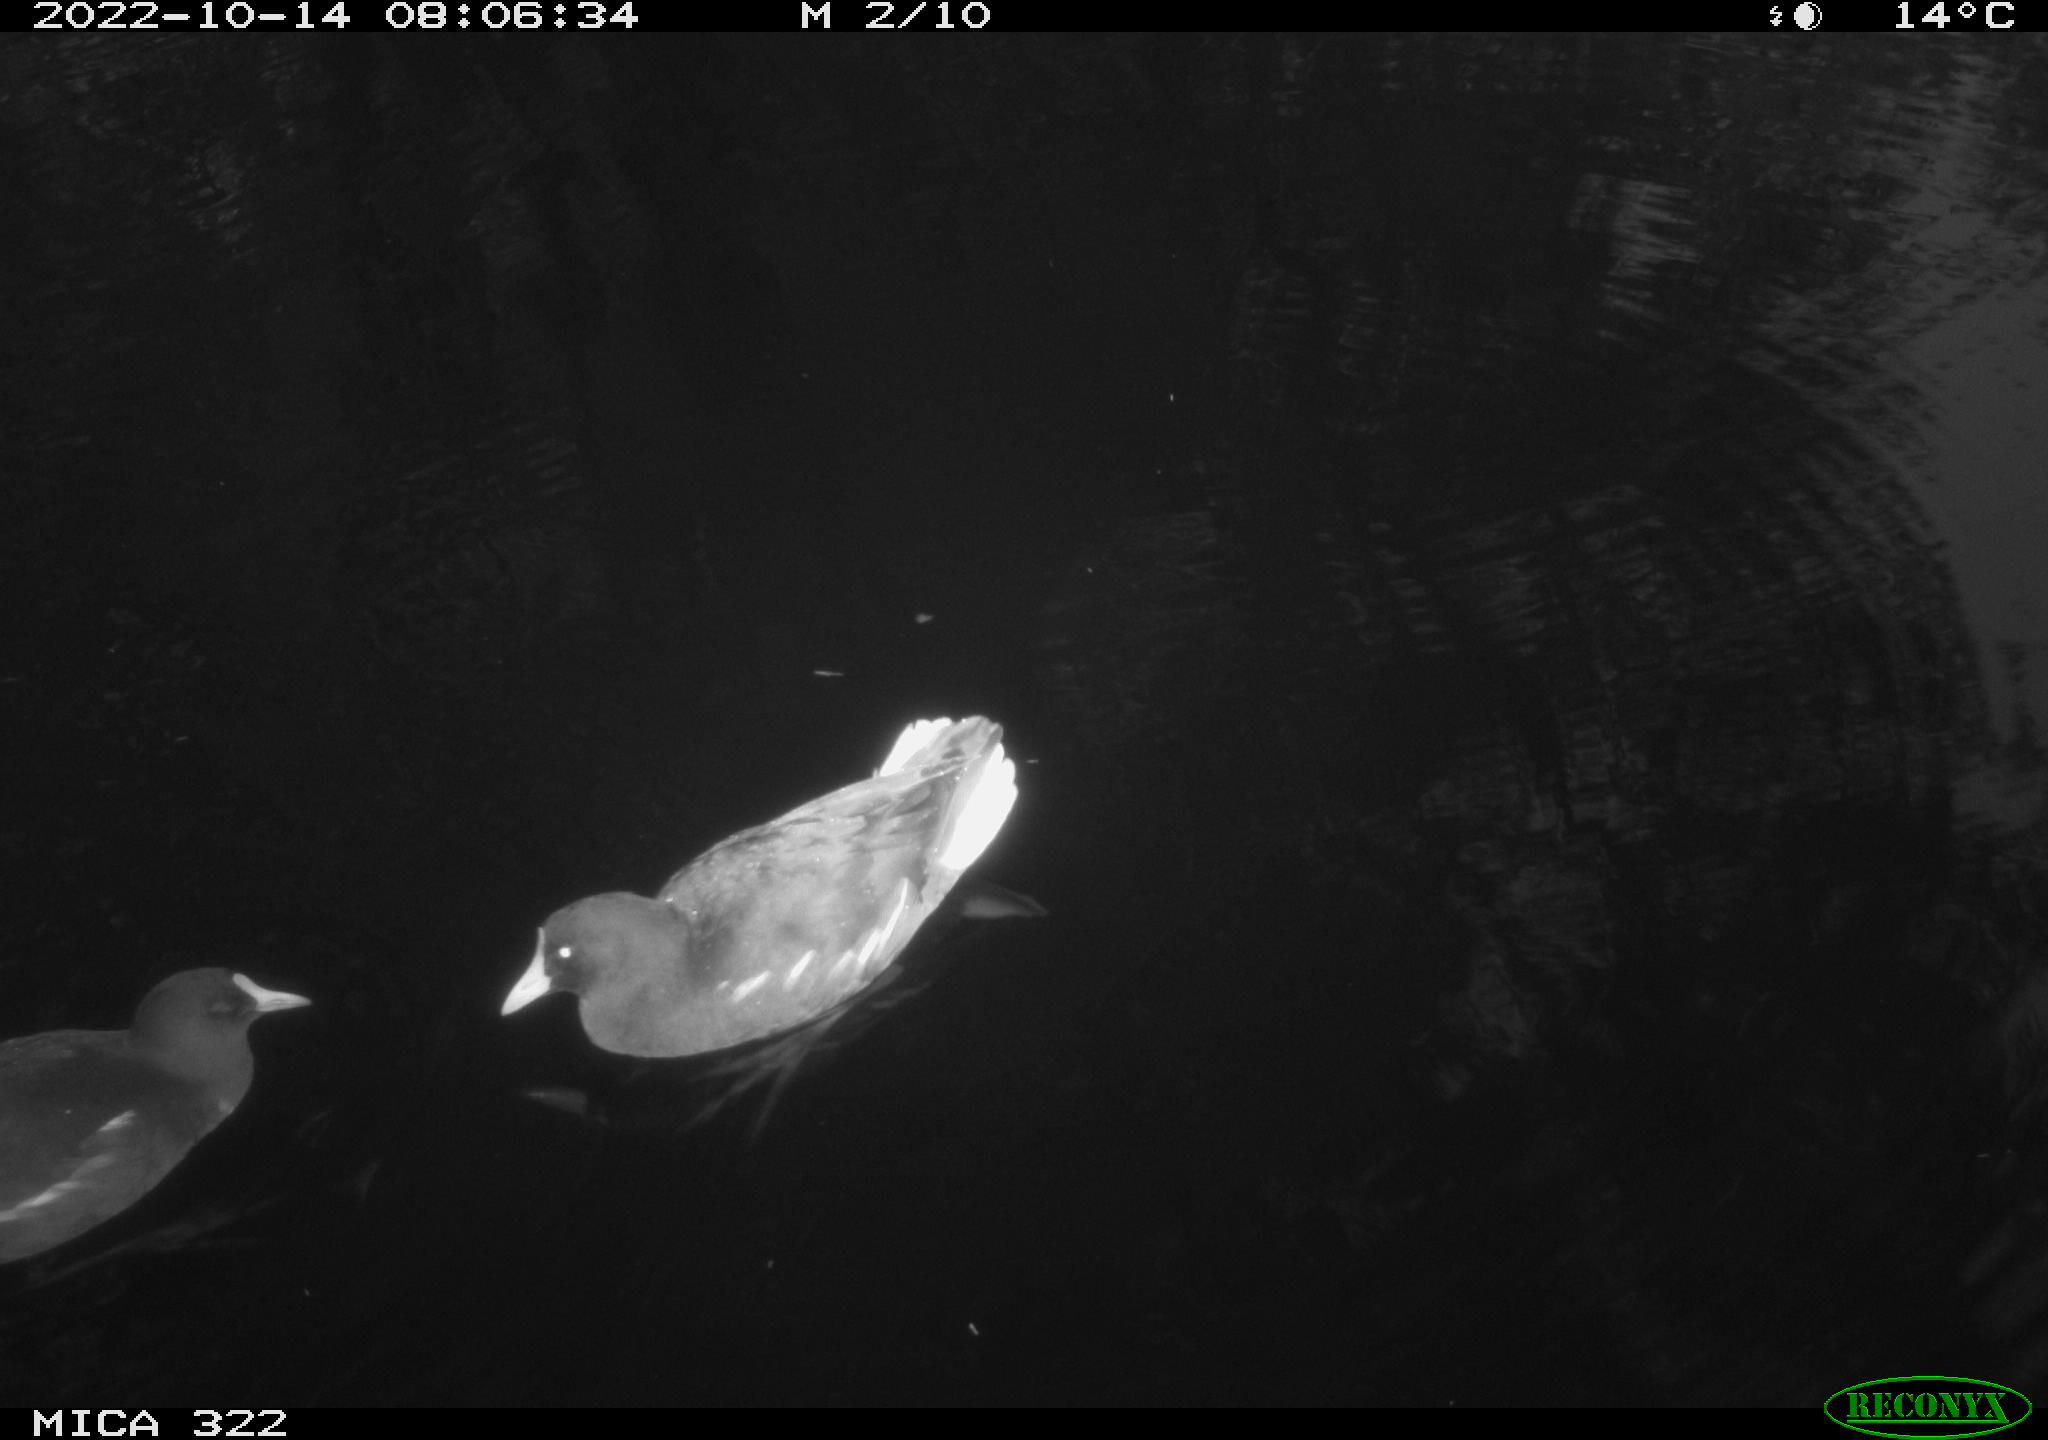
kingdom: Animalia
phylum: Chordata
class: Mammalia
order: Rodentia
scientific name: Rodentia
